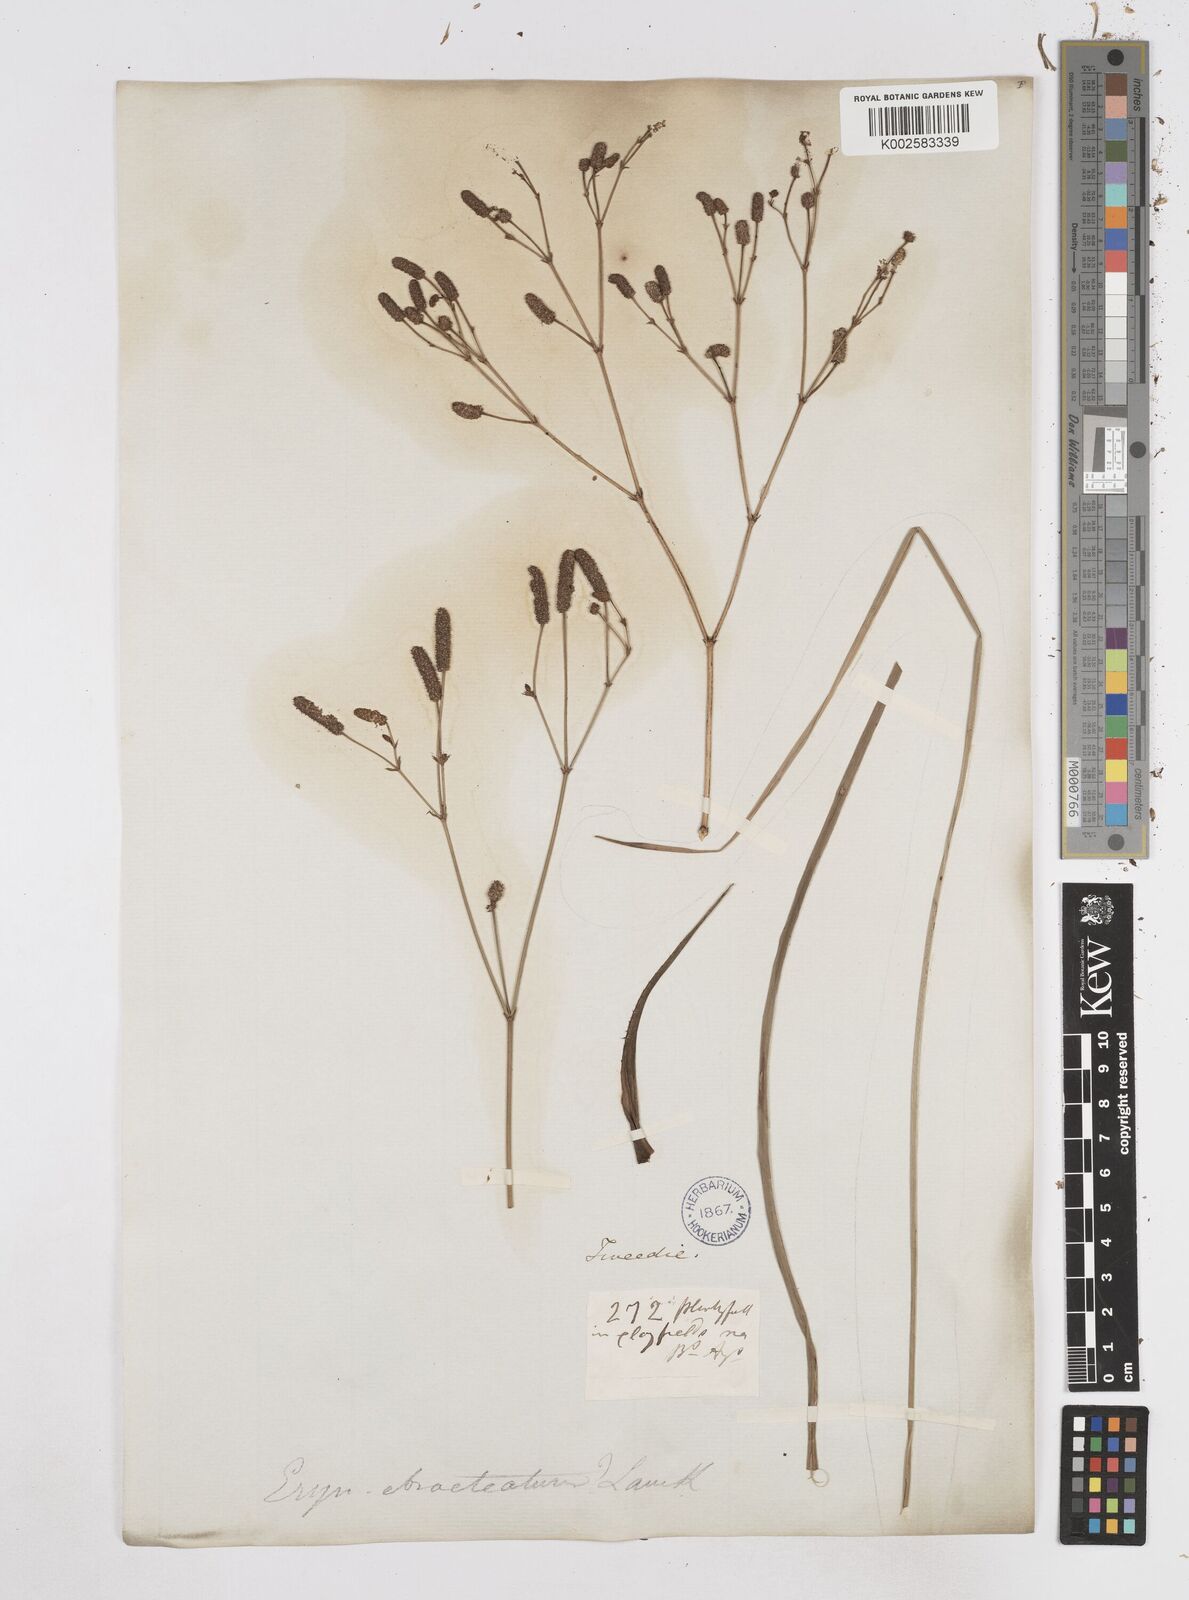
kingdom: Plantae
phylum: Tracheophyta
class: Magnoliopsida
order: Apiales
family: Apiaceae
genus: Eryngium
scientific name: Eryngium ebracteatum
